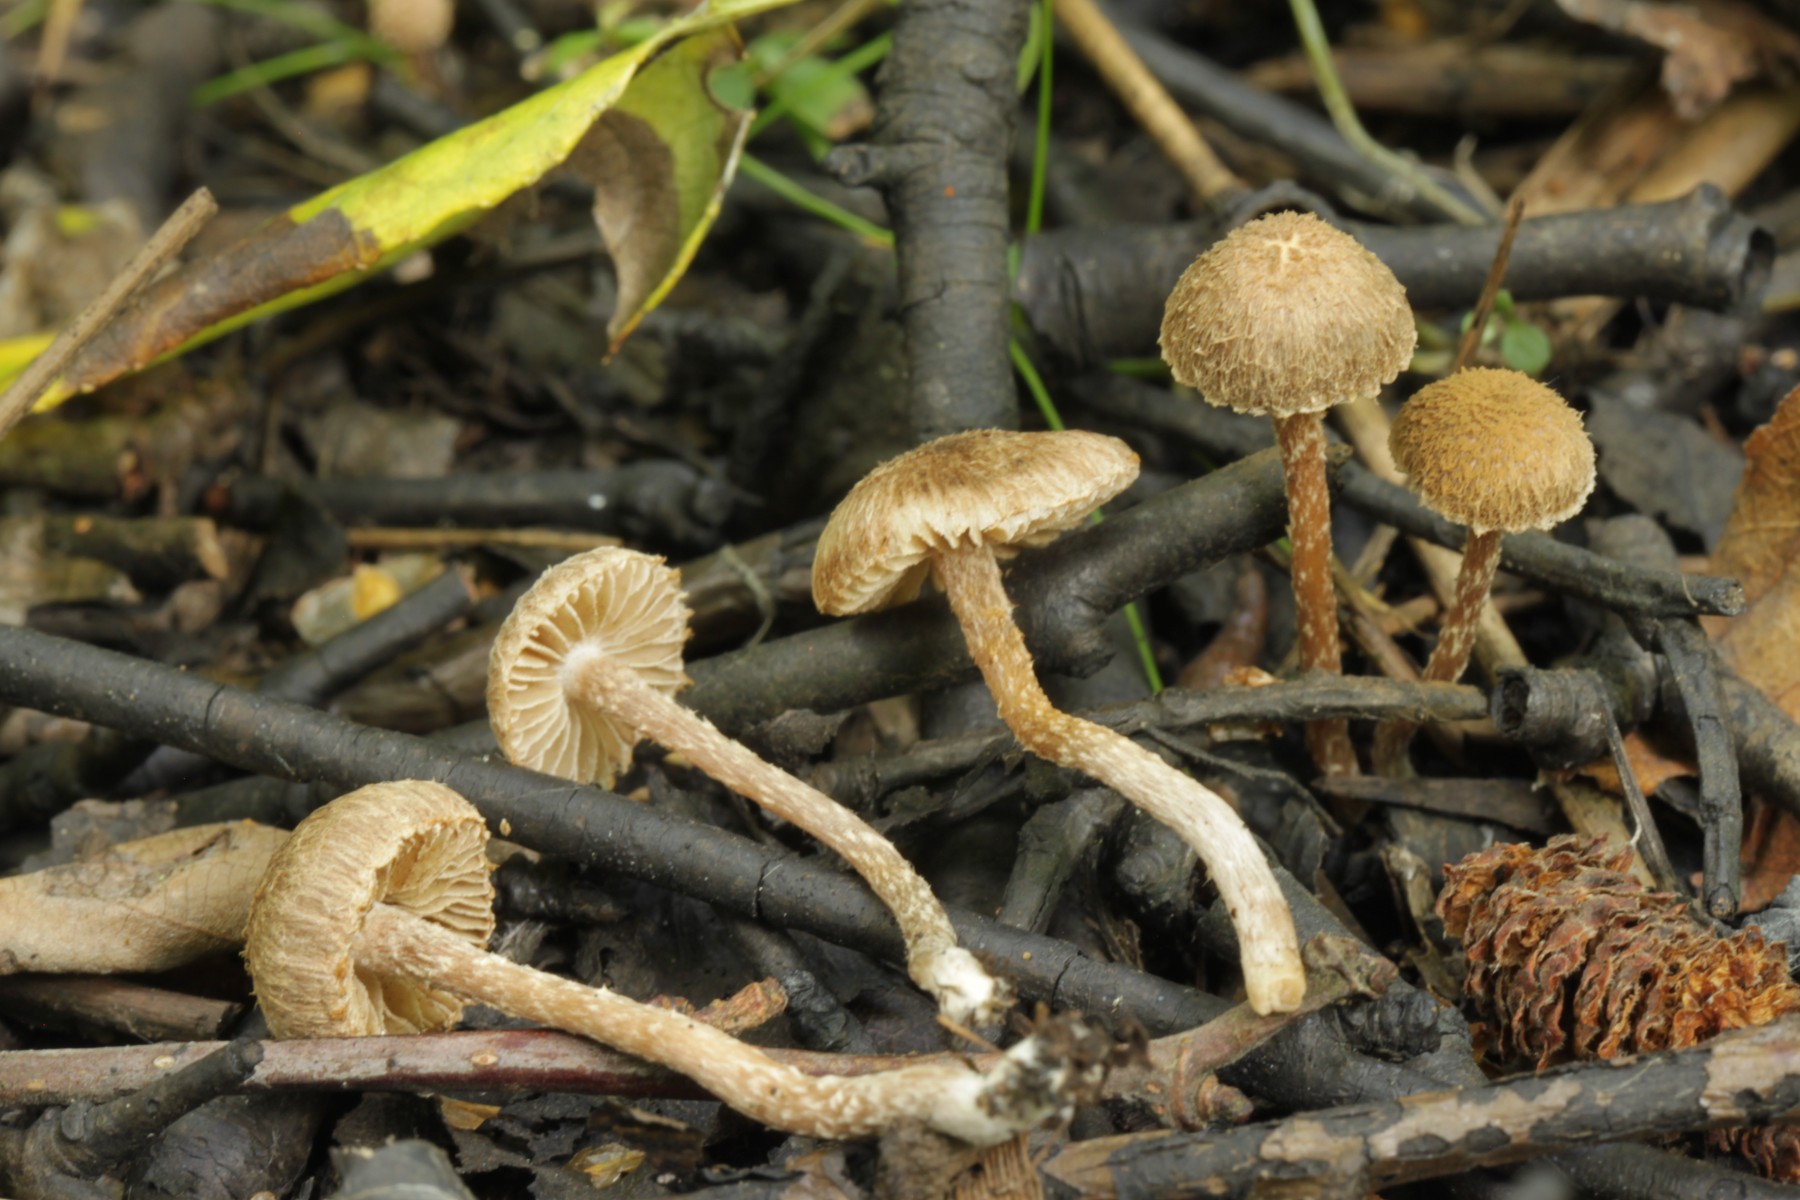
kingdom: Fungi
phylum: Basidiomycota
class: Agaricomycetes
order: Agaricales
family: Inocybaceae
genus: Inocybe
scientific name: Inocybe squarrosa
